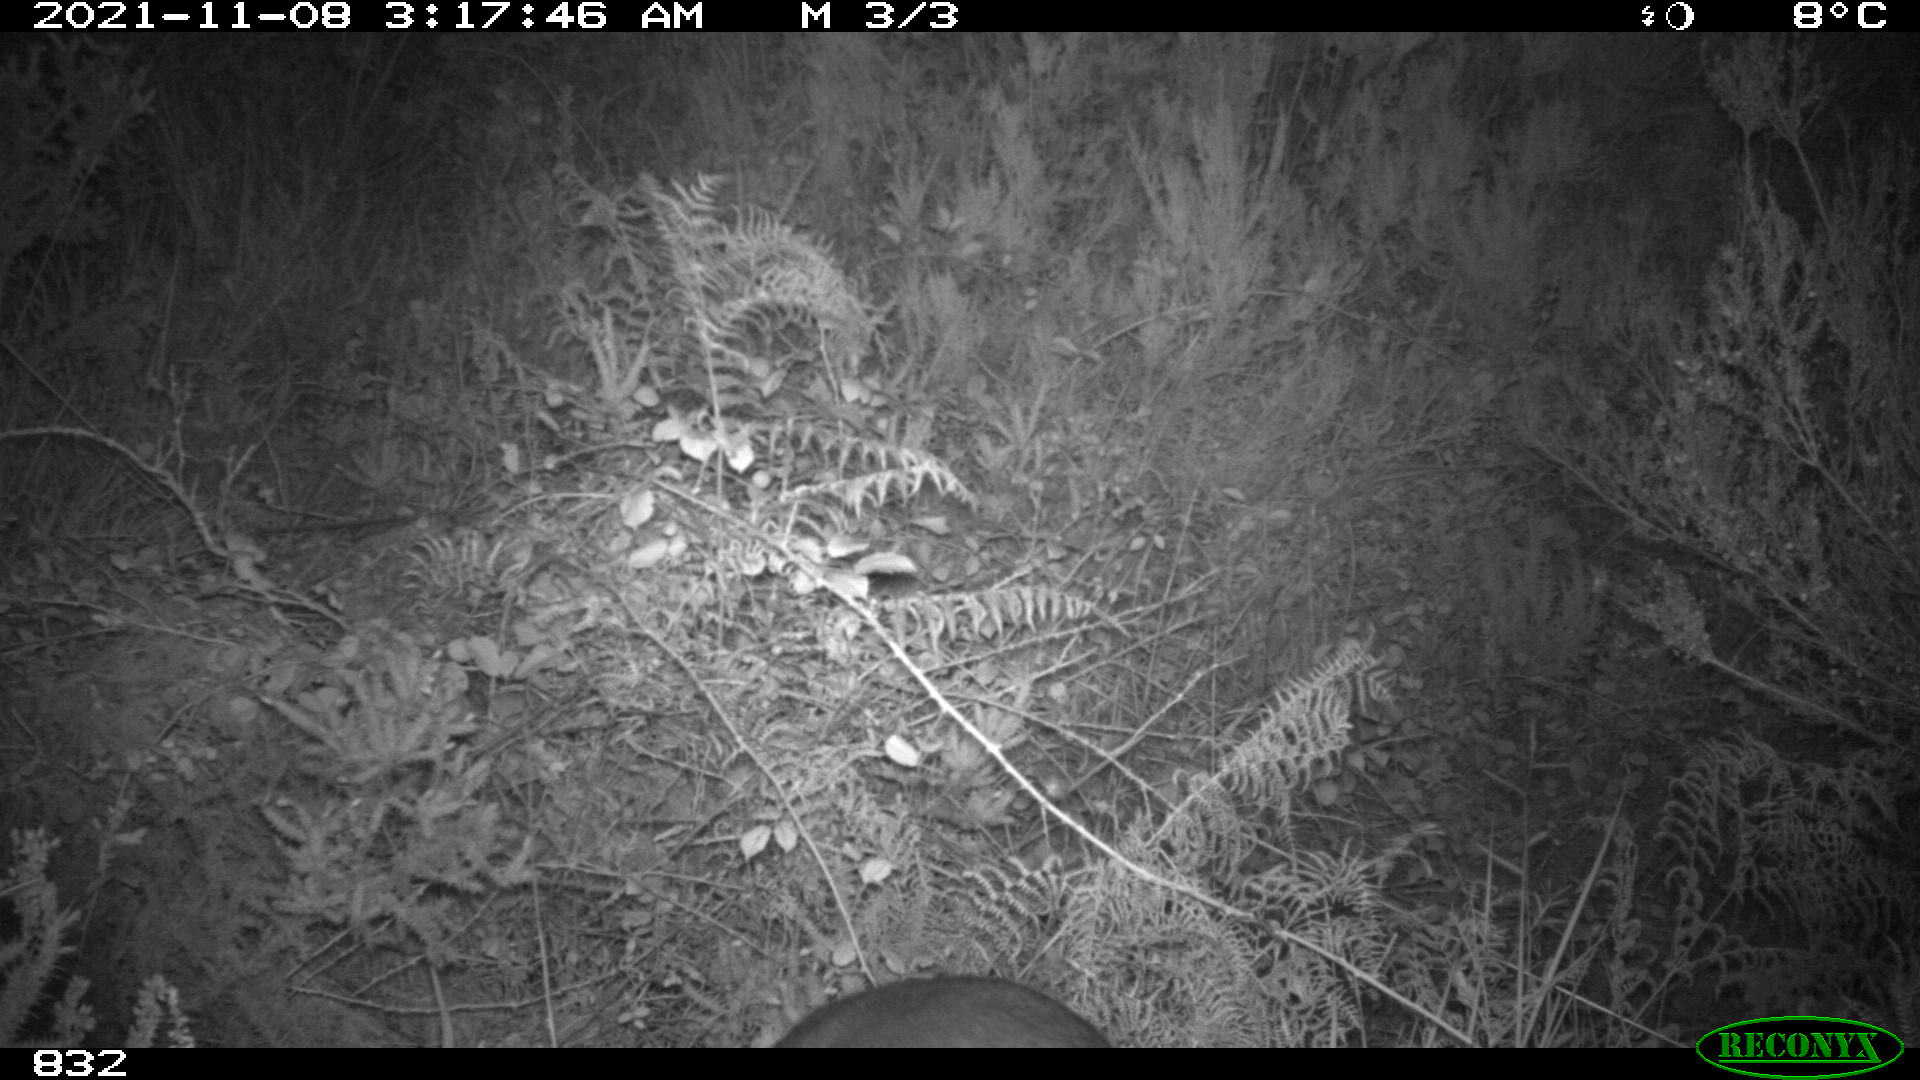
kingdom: Animalia
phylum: Chordata
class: Mammalia
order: Artiodactyla
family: Cervidae
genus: Capreolus
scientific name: Capreolus capreolus
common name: Western roe deer
